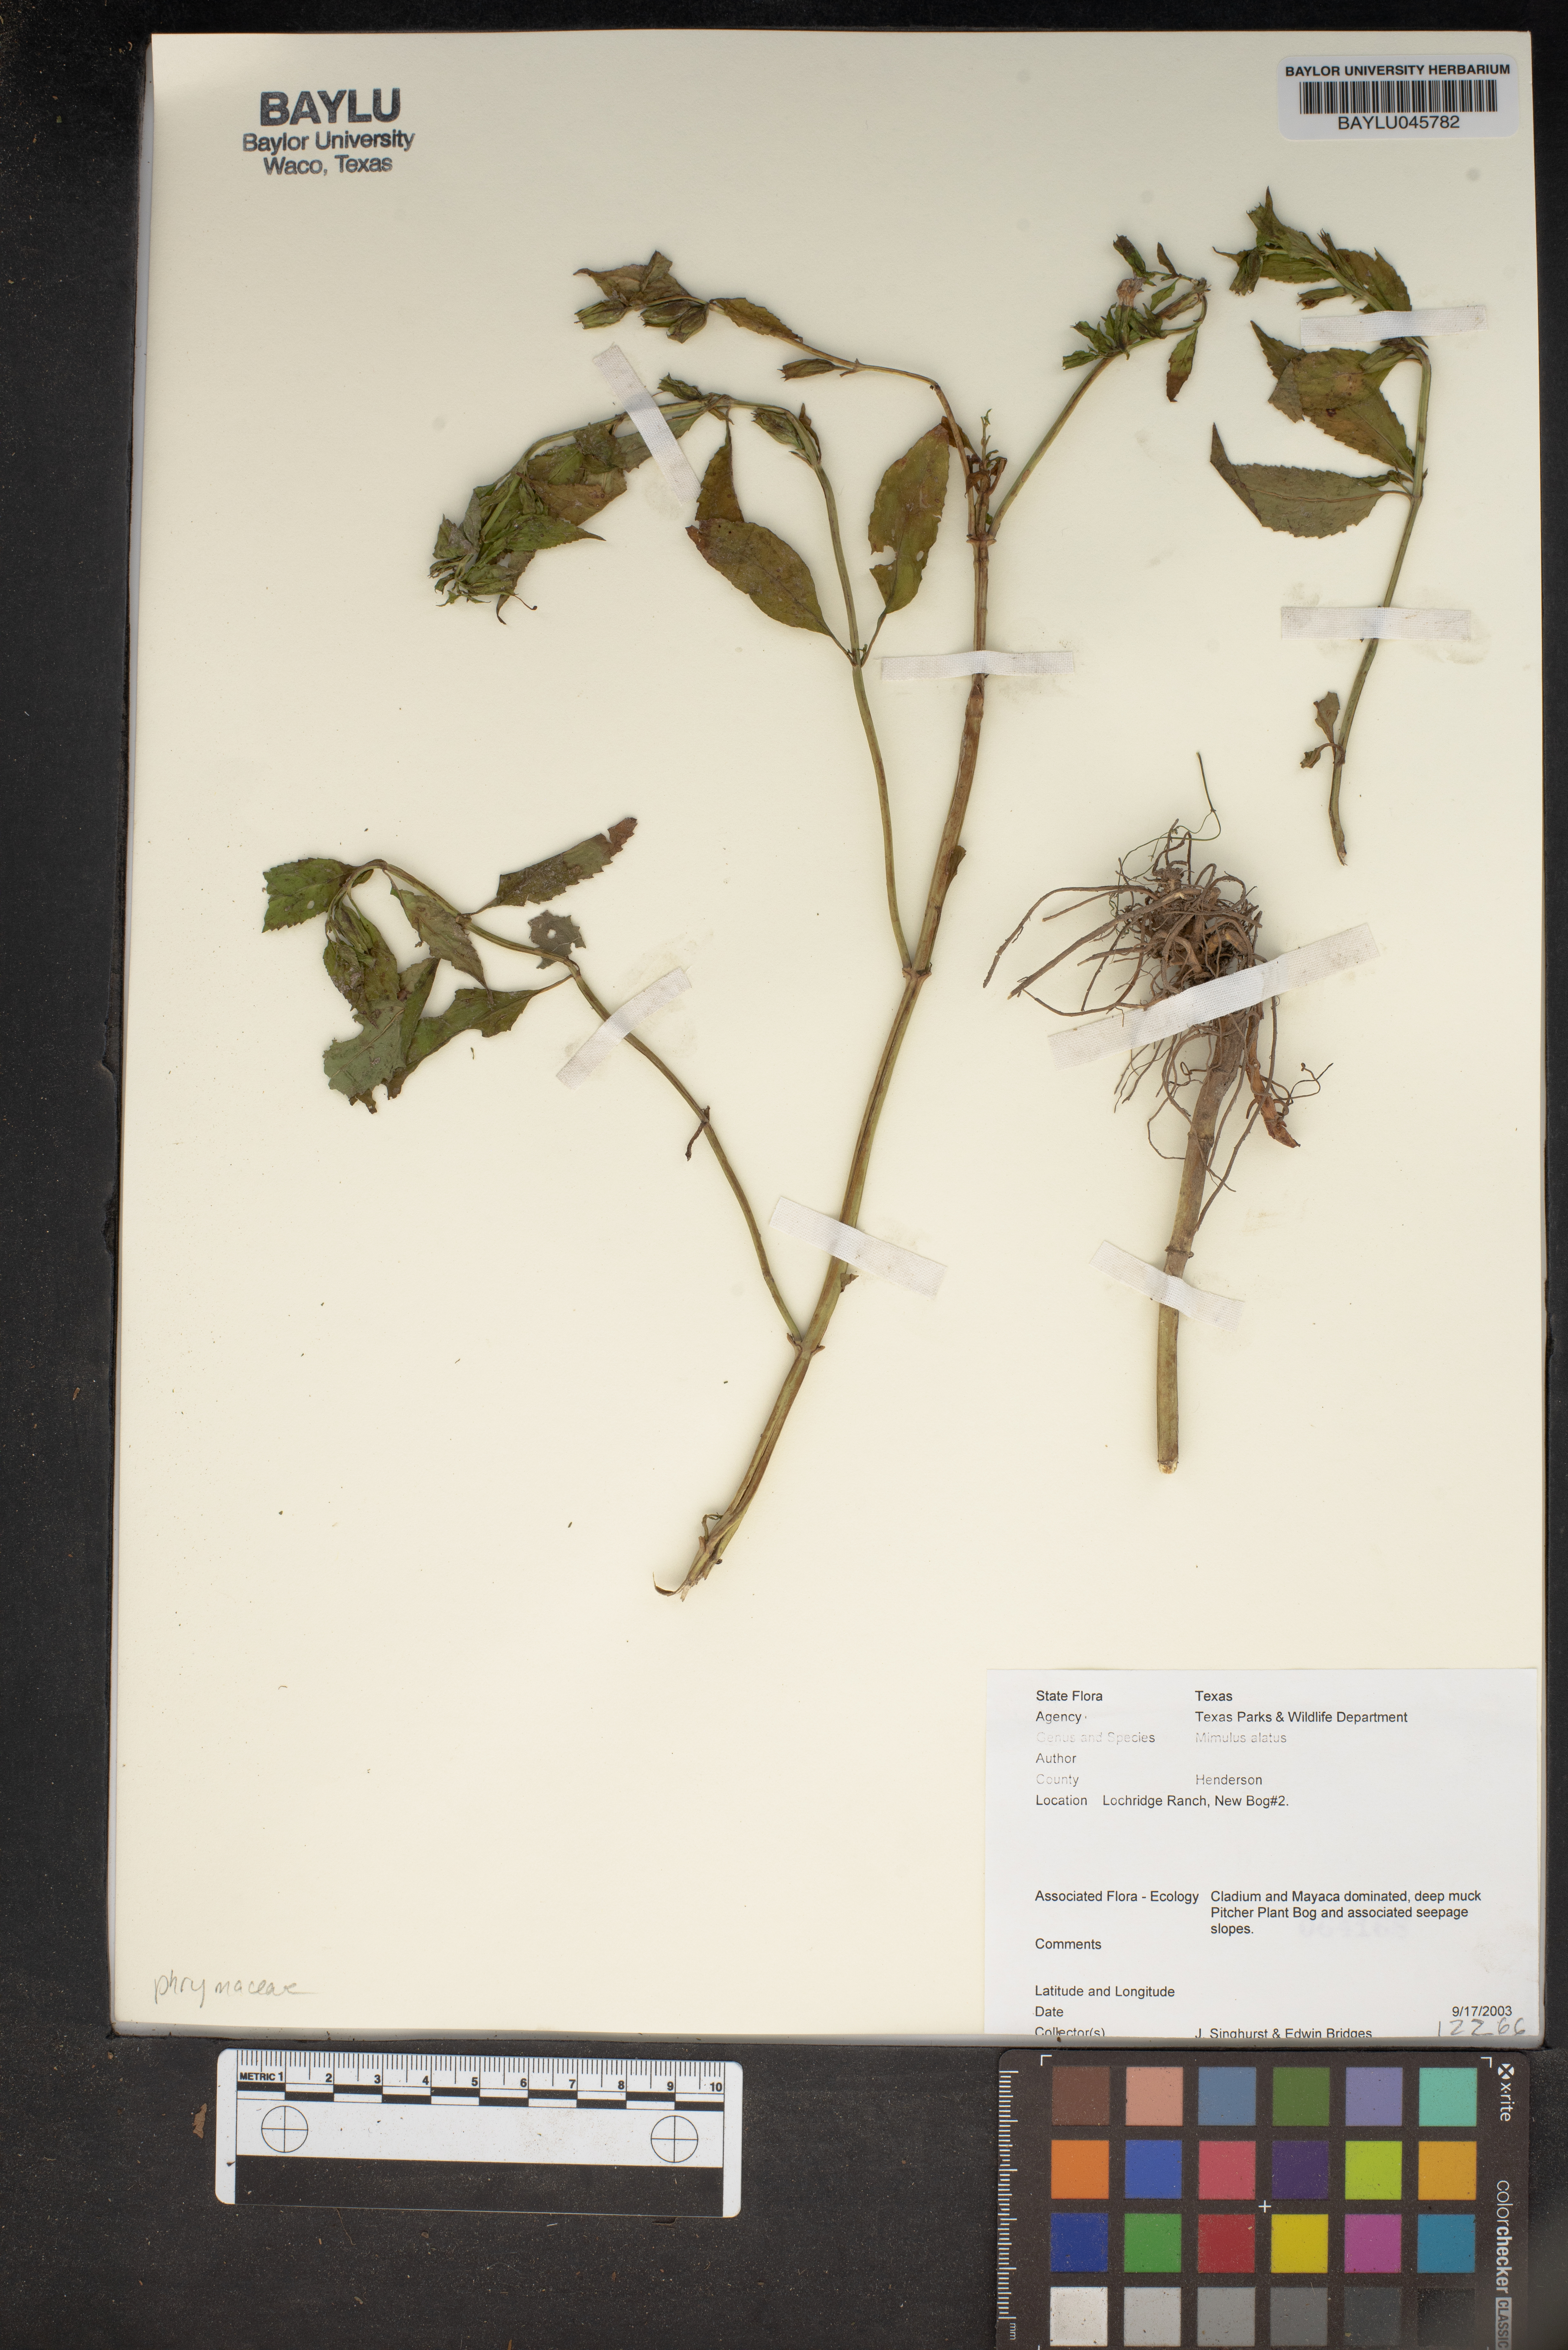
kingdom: Plantae
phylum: Tracheophyta
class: Magnoliopsida
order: Lamiales
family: Phrymaceae
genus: Mimulus
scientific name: Mimulus alatus
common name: Sharp-wing monkey-flower
